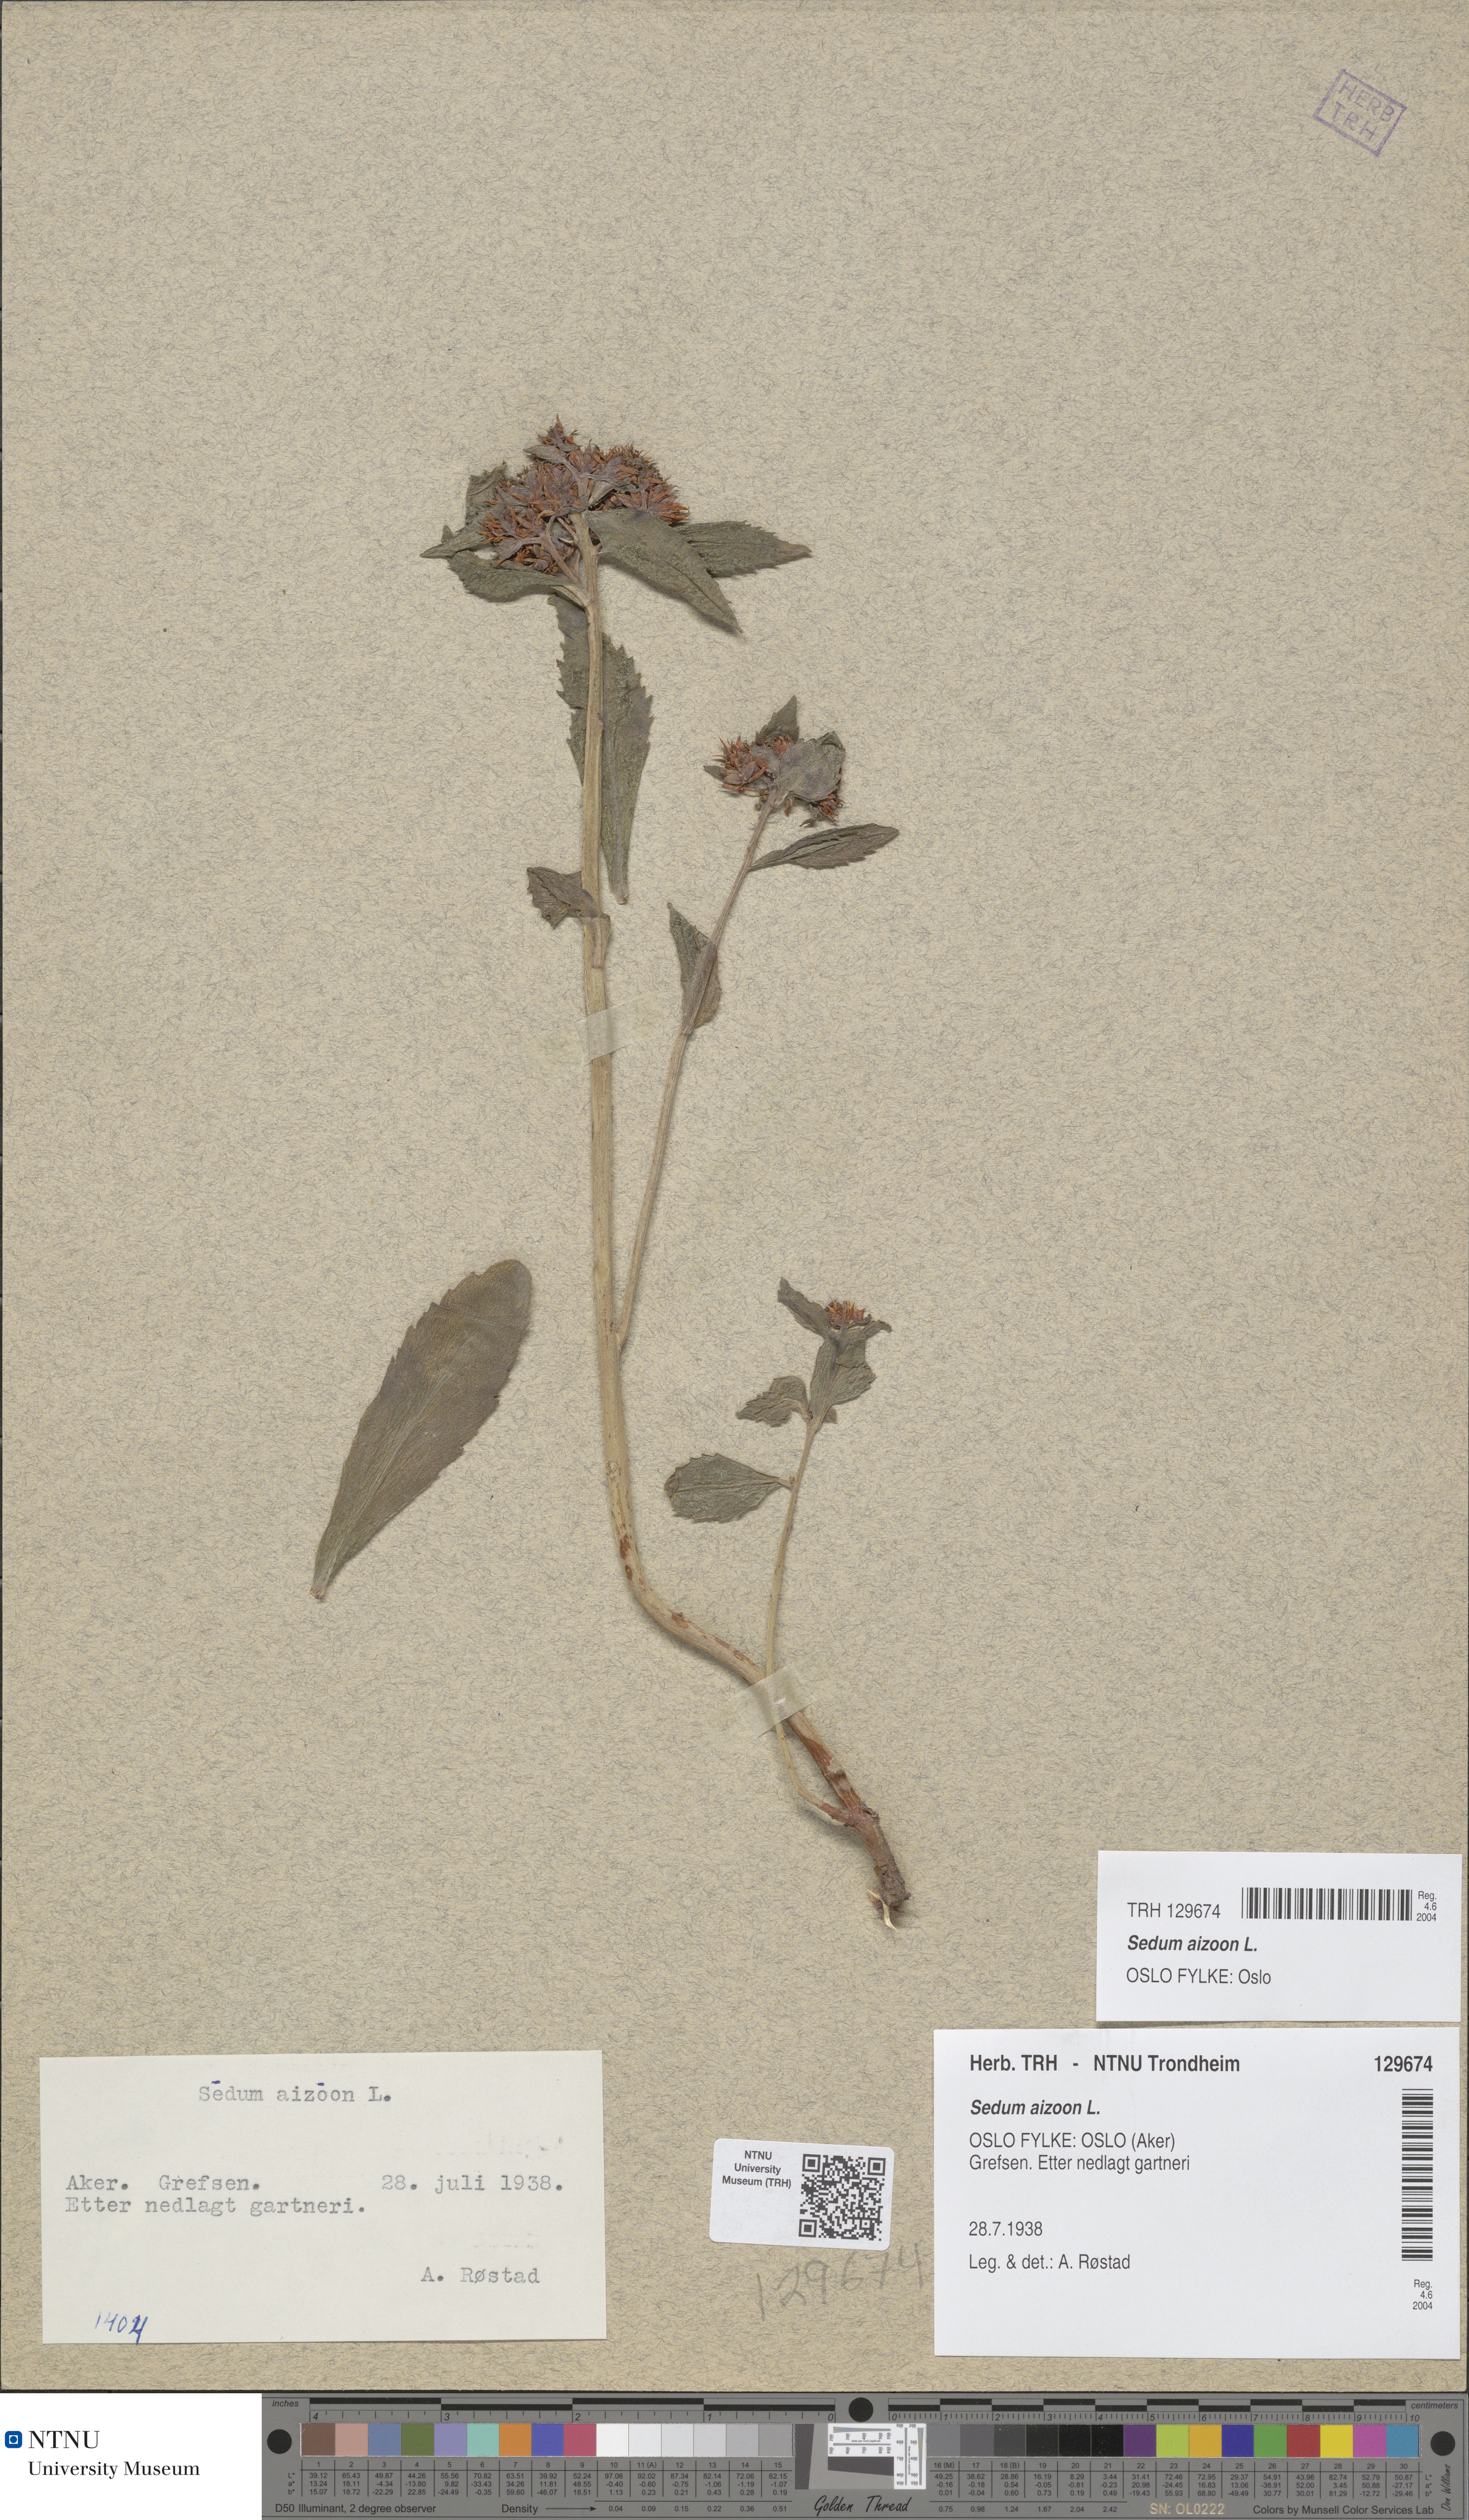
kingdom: Plantae
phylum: Tracheophyta
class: Magnoliopsida
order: Saxifragales
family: Crassulaceae
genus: Phedimus
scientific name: Phedimus aizoon
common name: Orpin aizoon
